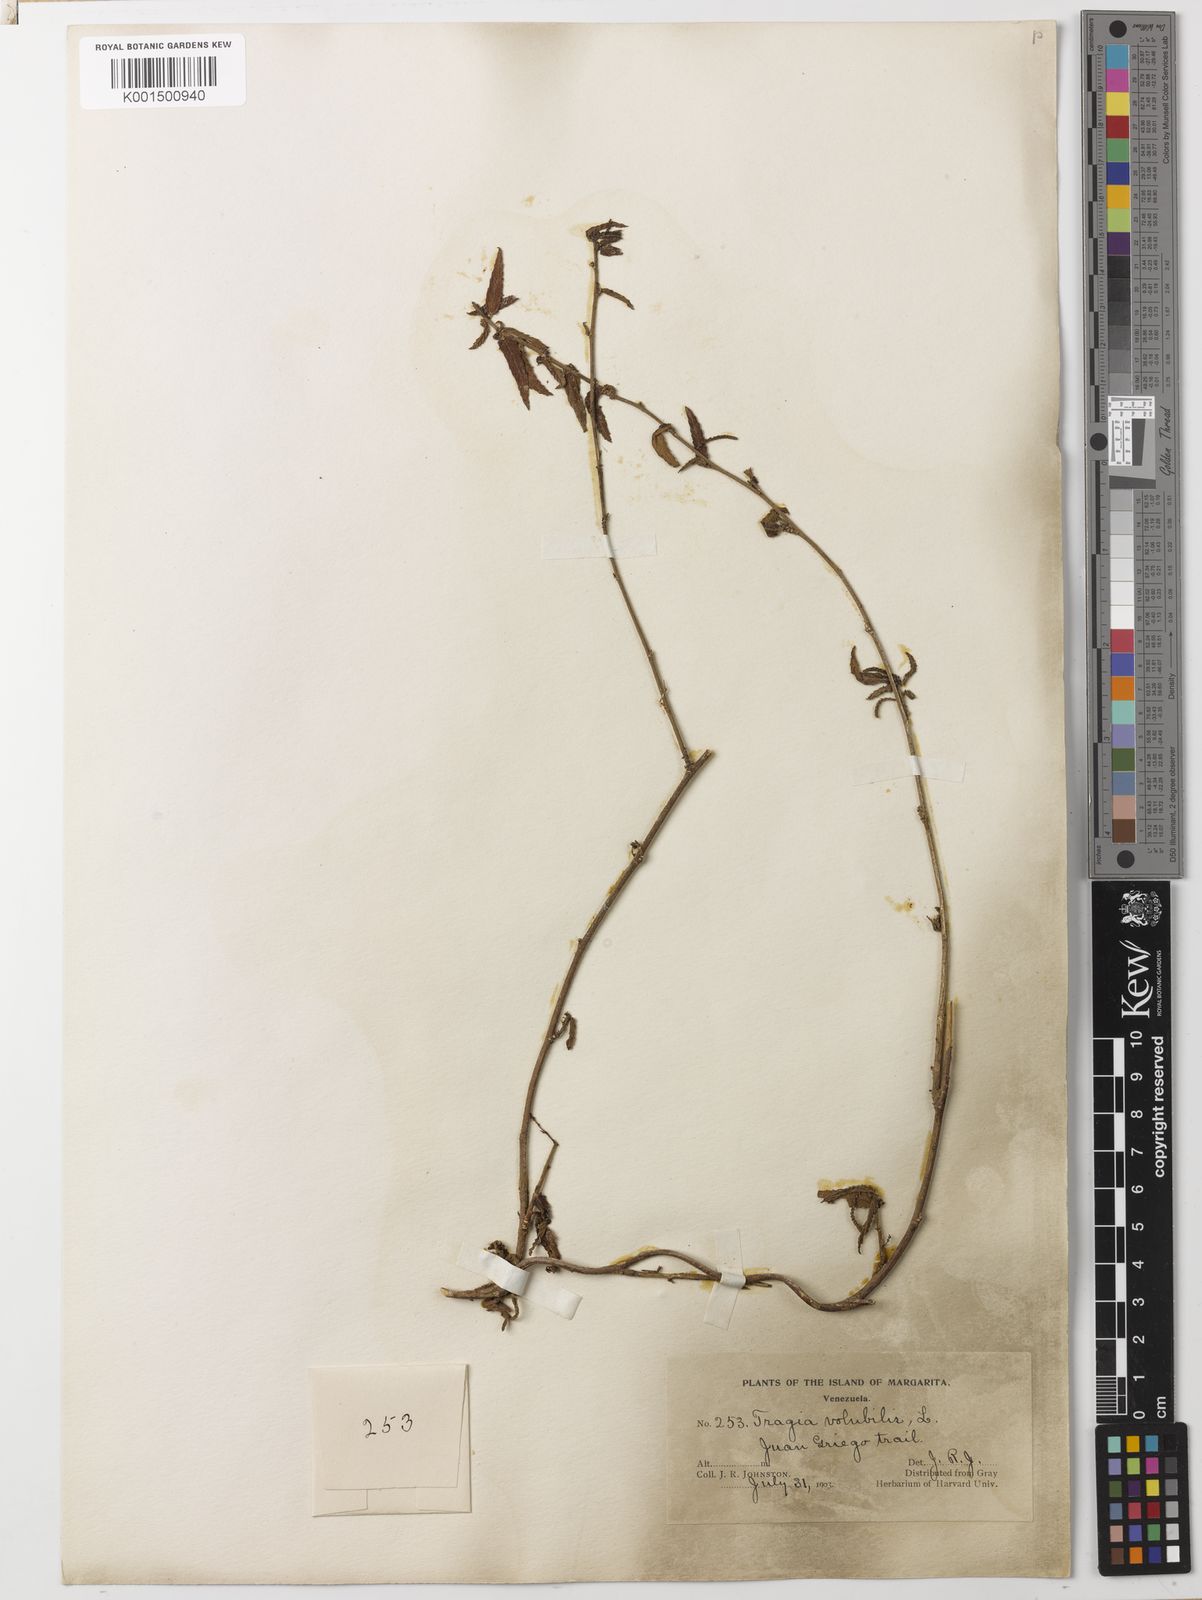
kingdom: Plantae
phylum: Tracheophyta
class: Magnoliopsida
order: Malpighiales
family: Euphorbiaceae
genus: Tragia
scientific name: Tragia volubilis
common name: Twining cow-itch
